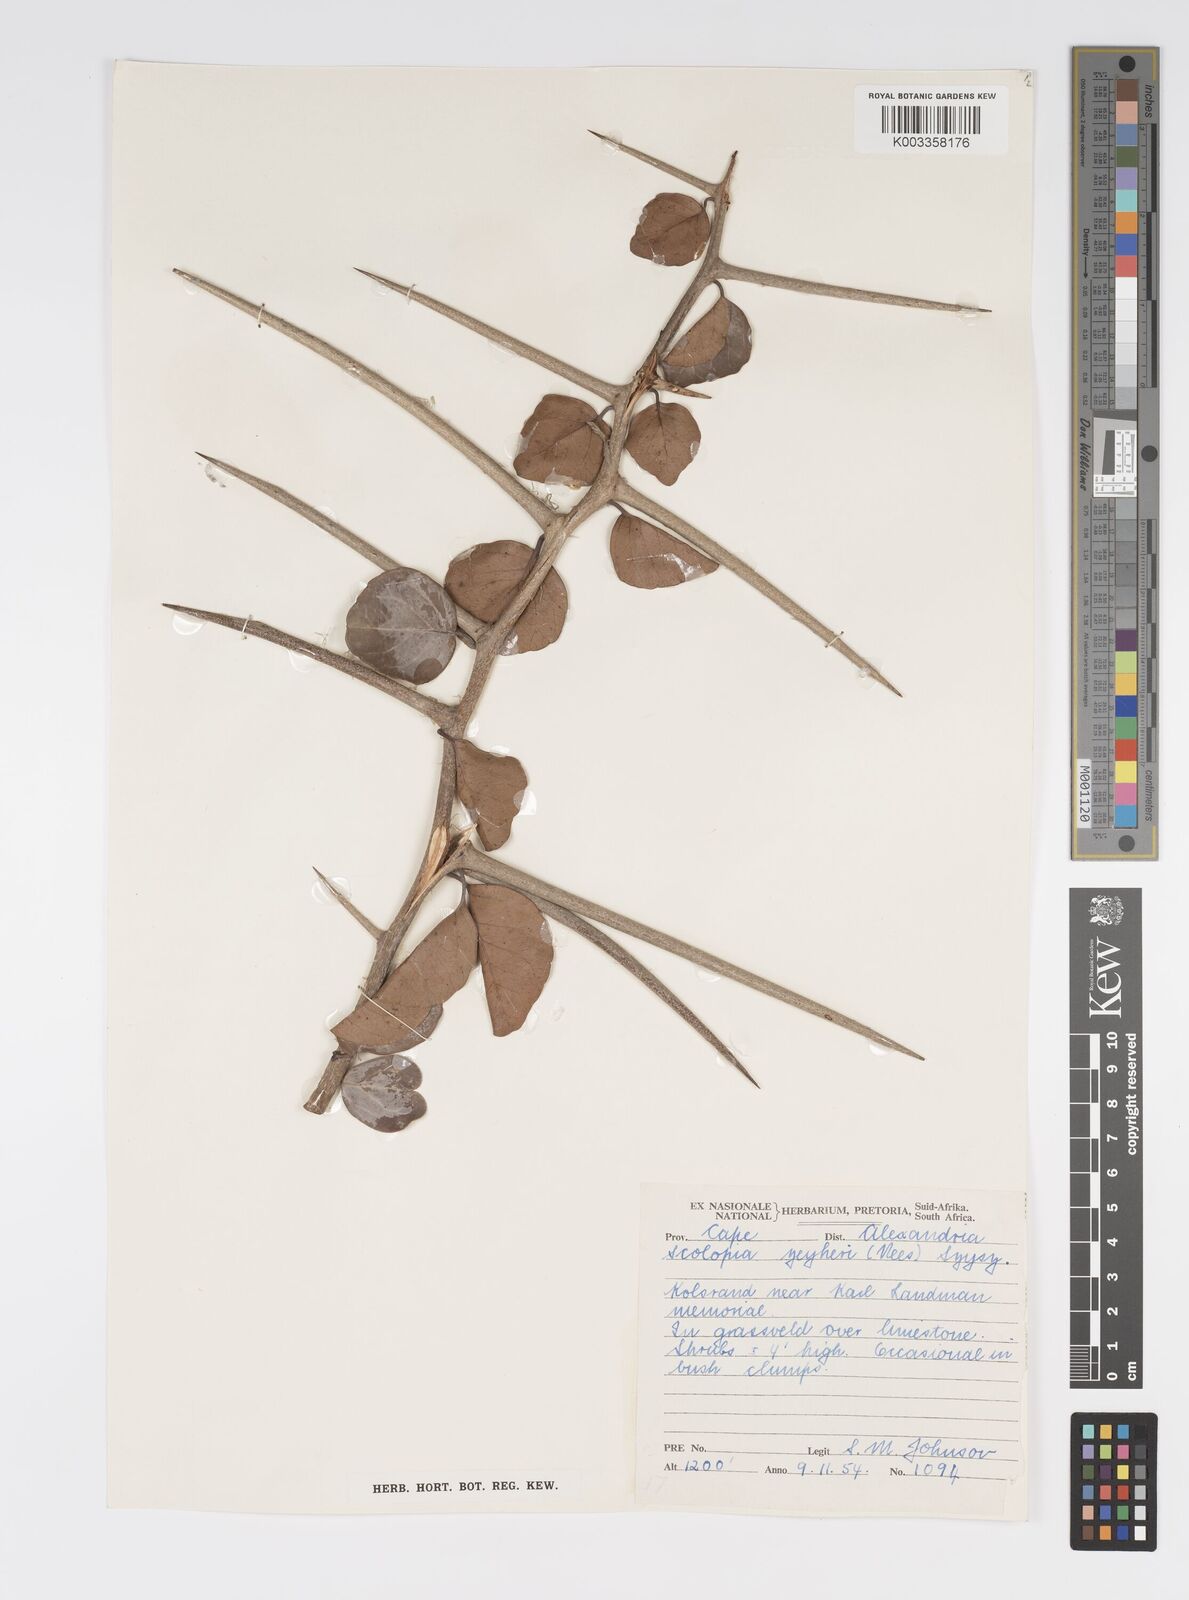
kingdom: Plantae
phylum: Tracheophyta
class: Magnoliopsida
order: Malpighiales
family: Salicaceae
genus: Scolopia
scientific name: Scolopia zeyheri
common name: Thorn pear
